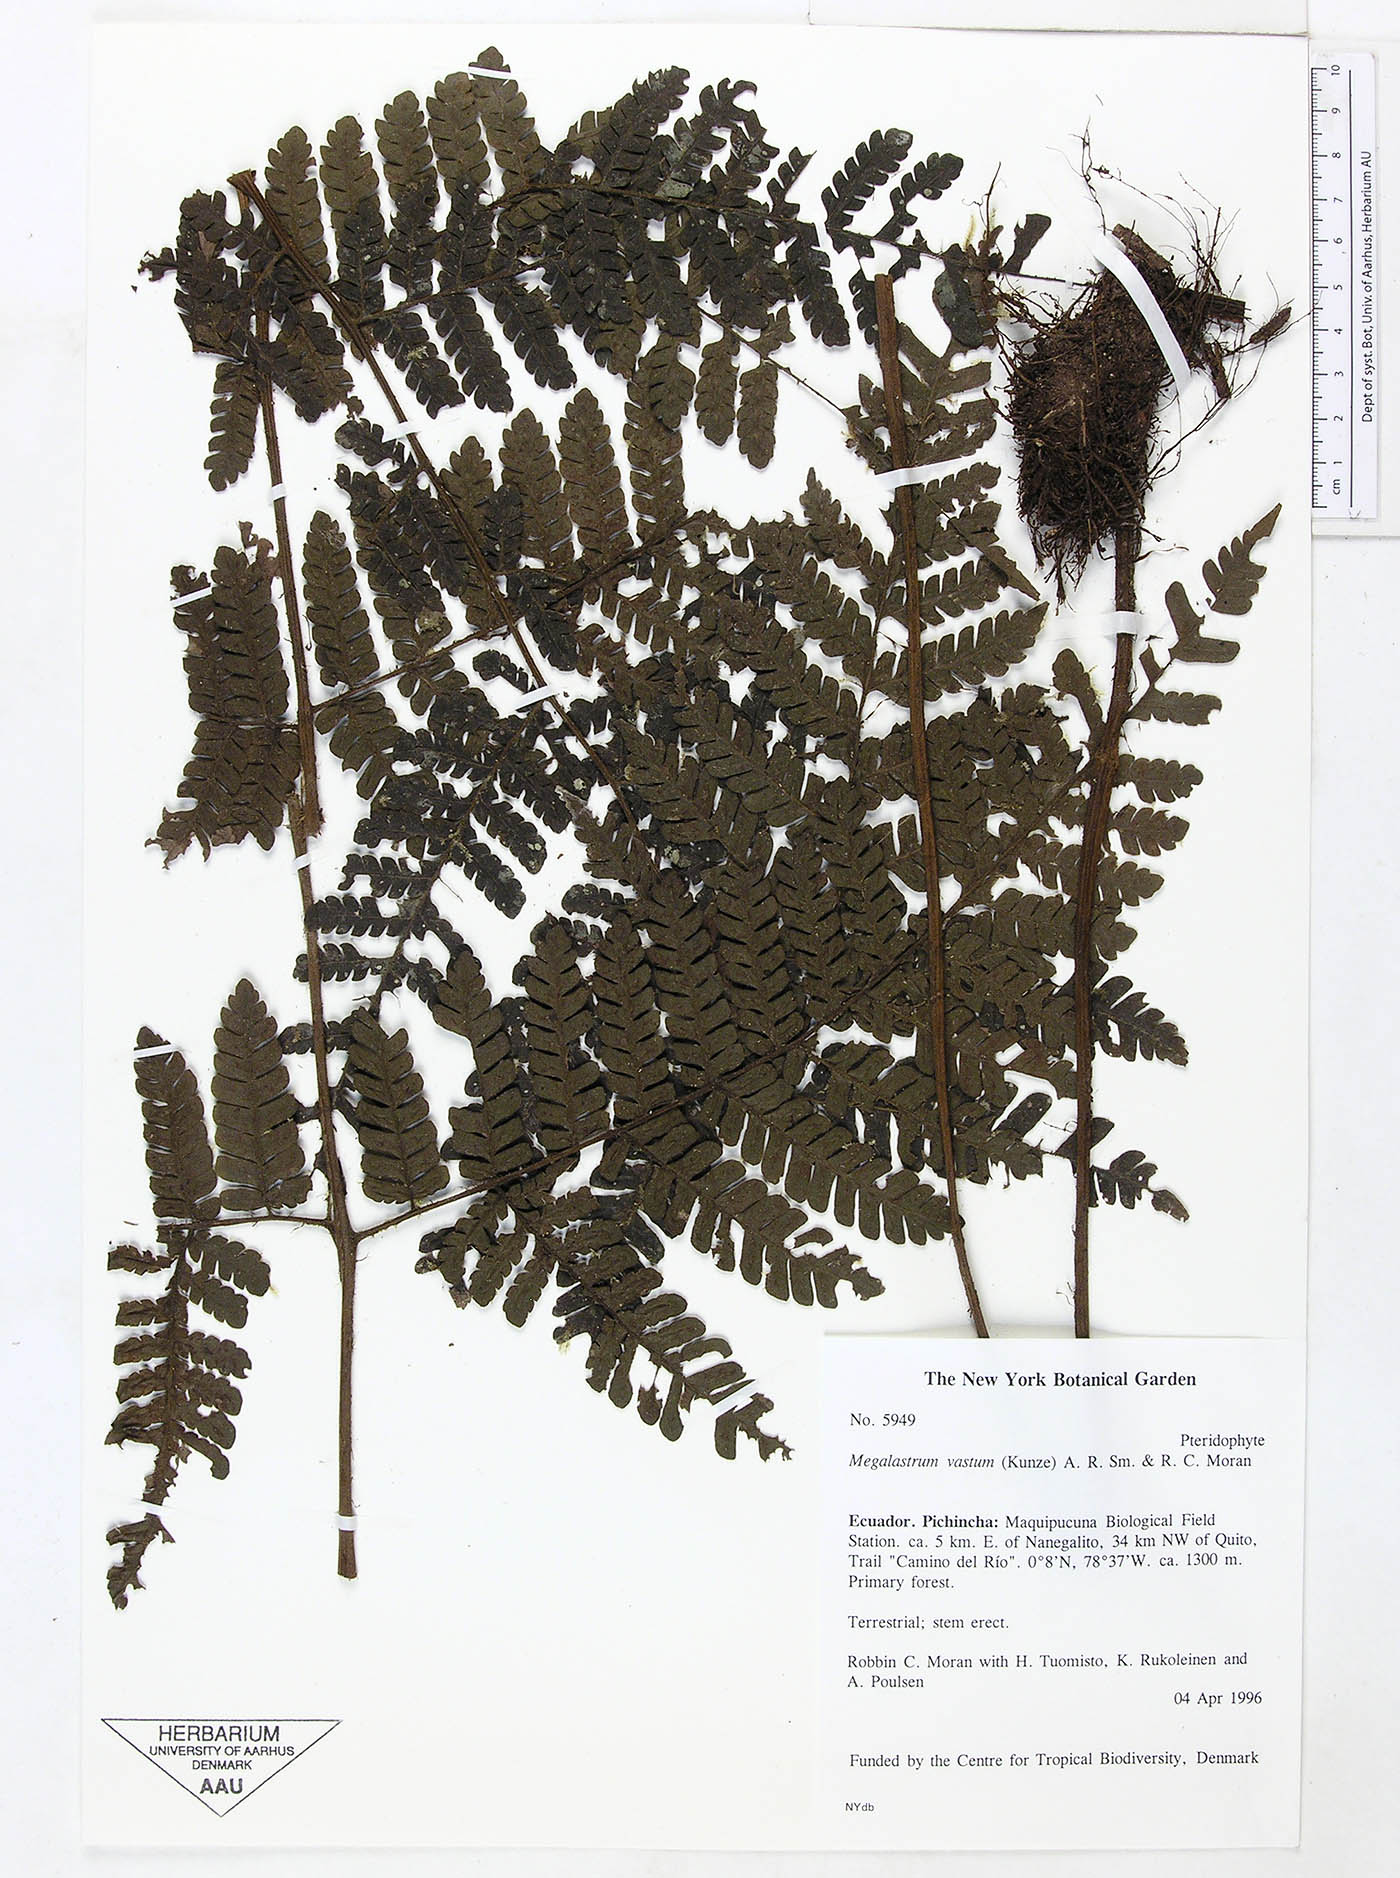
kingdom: Plantae
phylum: Tracheophyta
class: Polypodiopsida
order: Polypodiales
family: Dryopteridaceae
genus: Megalastrum
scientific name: Megalastrum vastum
